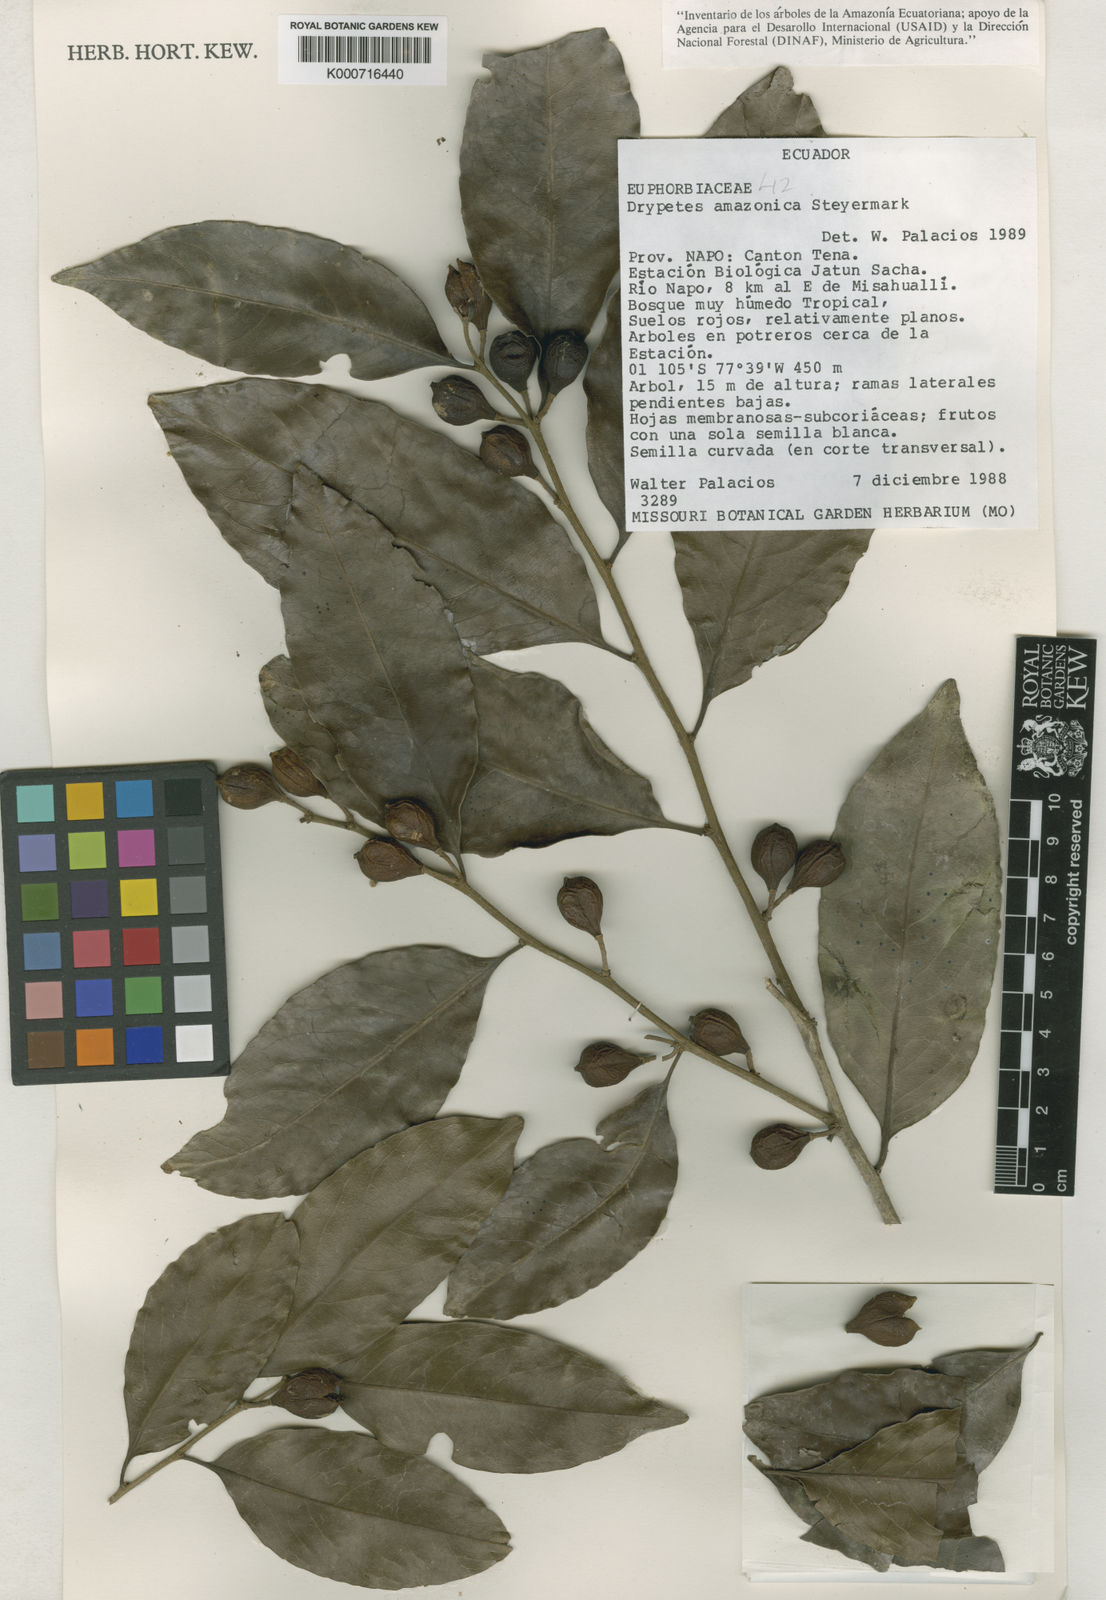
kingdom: Plantae
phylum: Tracheophyta
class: Magnoliopsida
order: Malpighiales
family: Putranjivaceae
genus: Drypetes
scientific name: Drypetes amazonica
